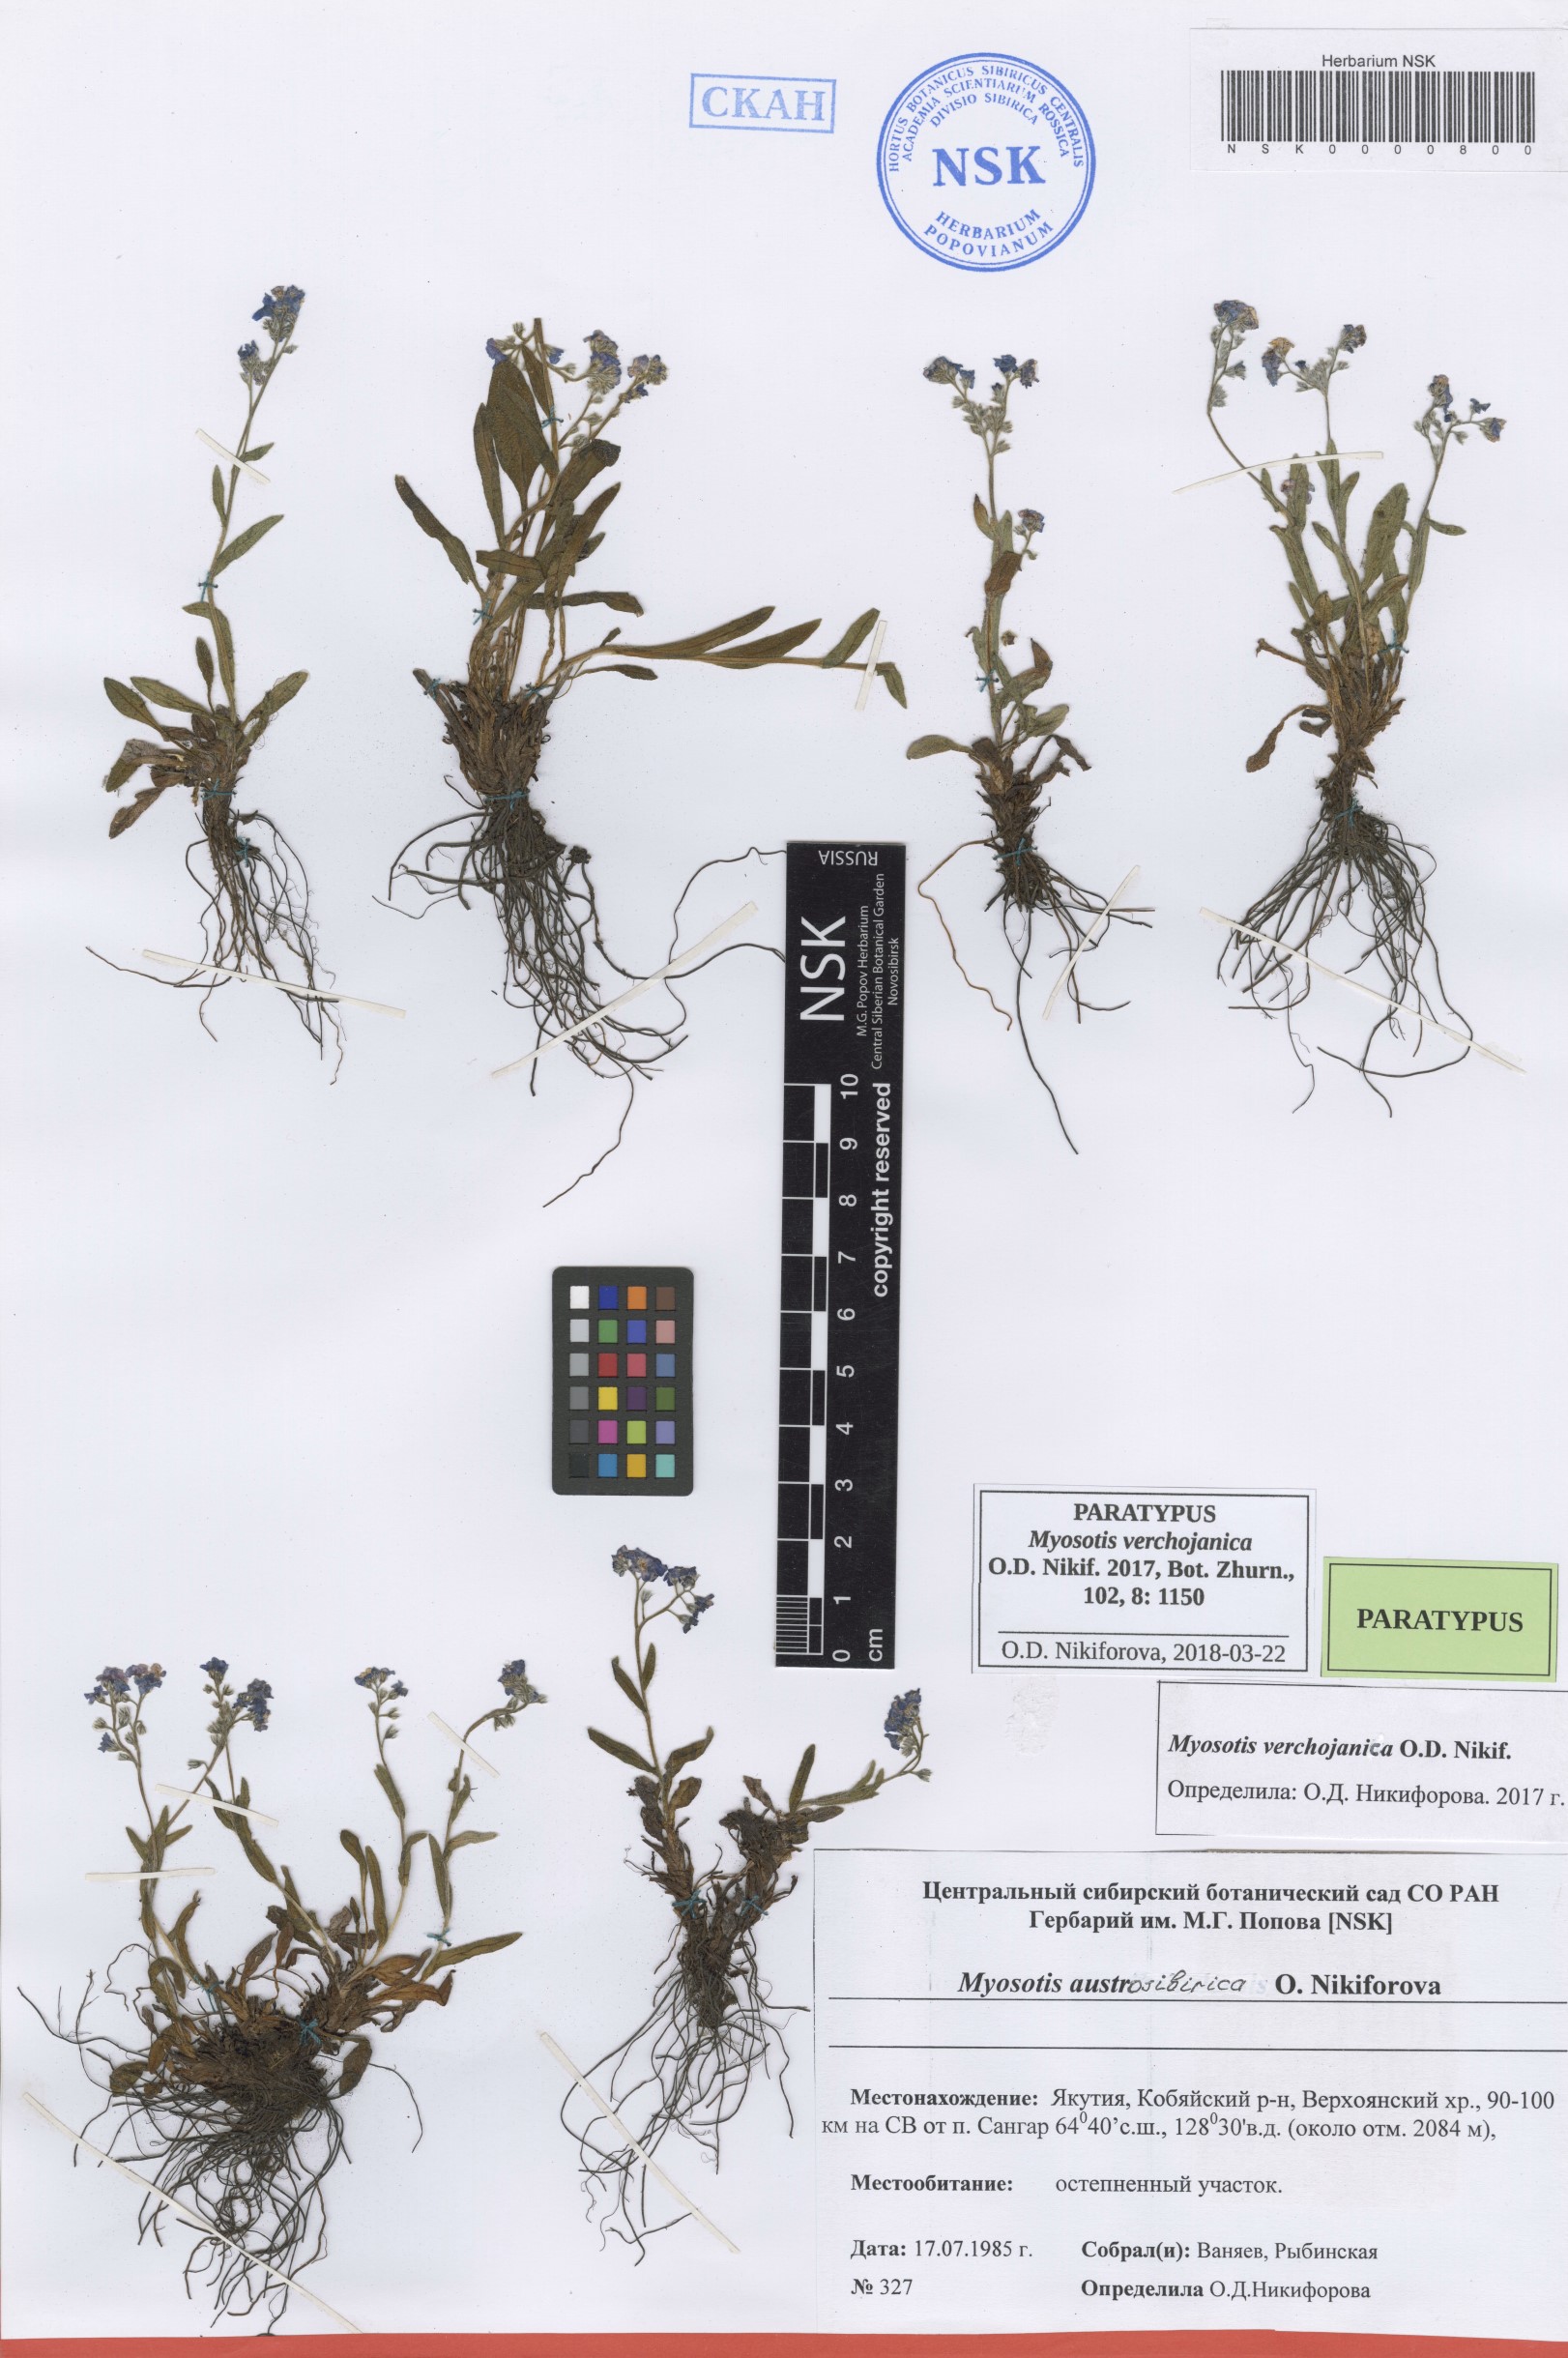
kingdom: Plantae
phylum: Tracheophyta
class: Magnoliopsida
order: Boraginales
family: Boraginaceae
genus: Myosotis
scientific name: Myosotis
